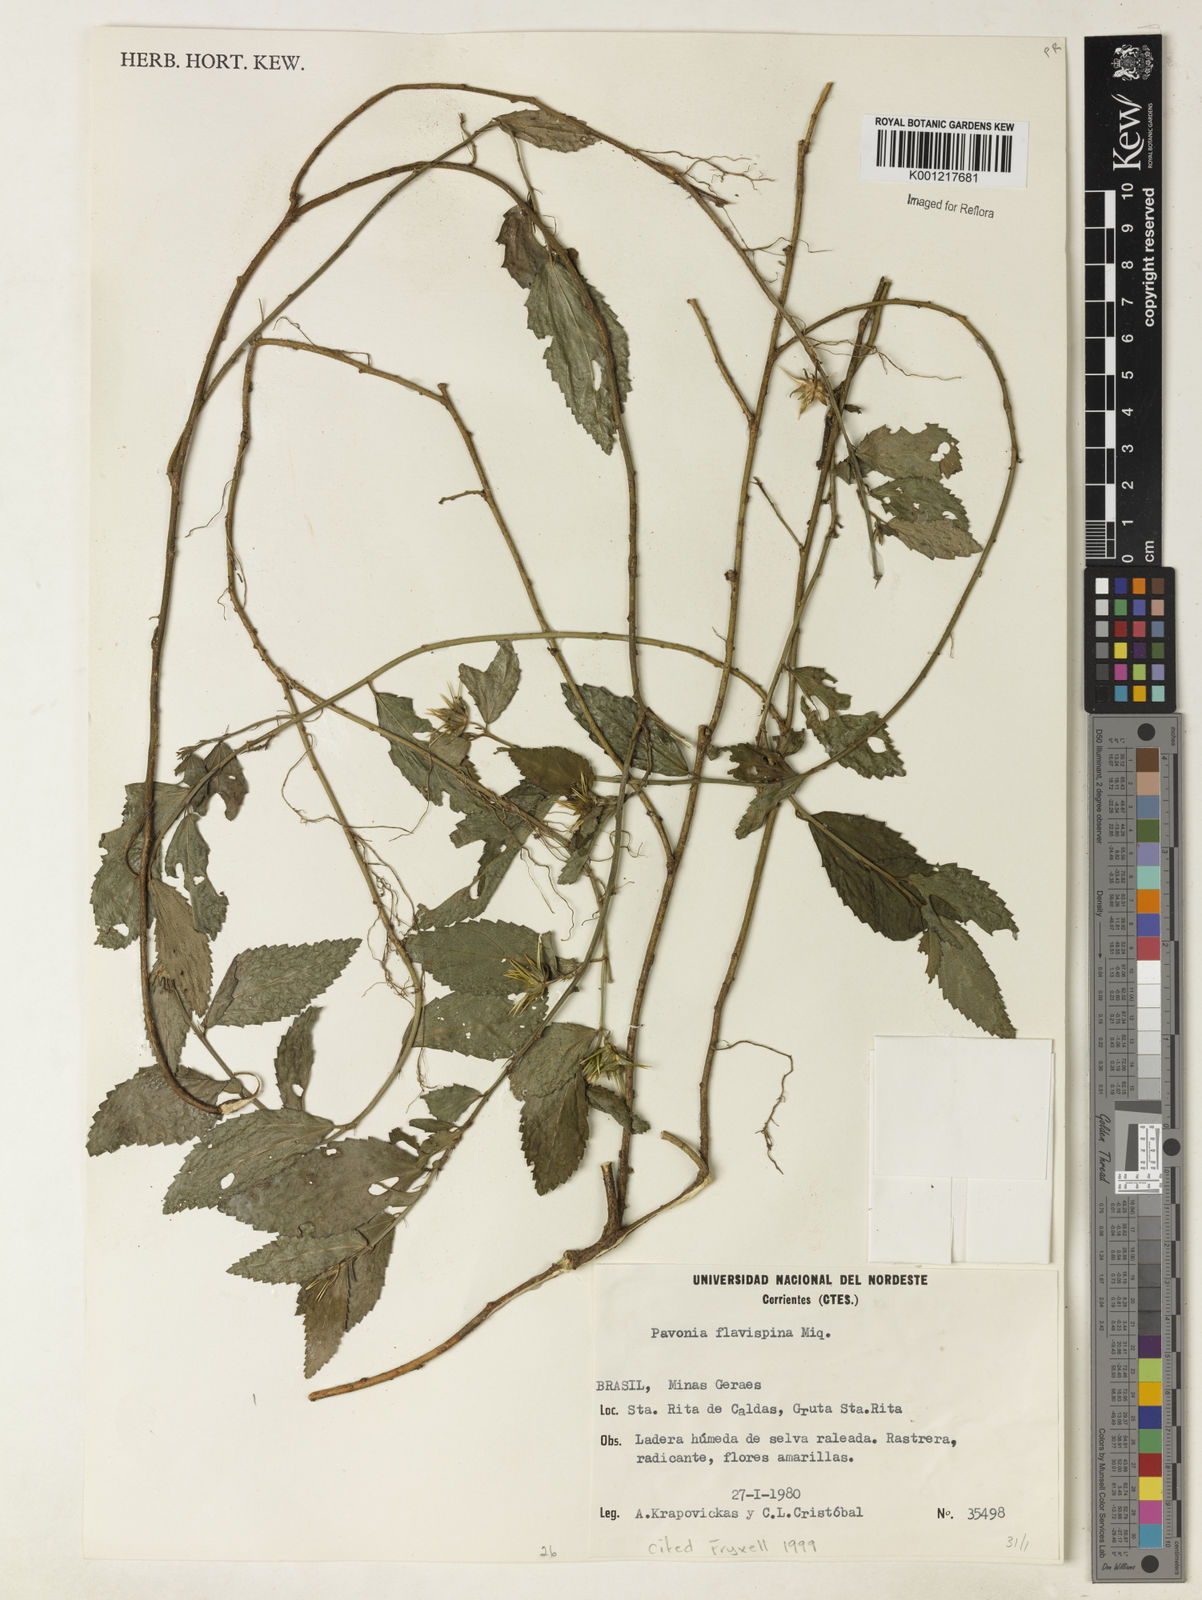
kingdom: Plantae
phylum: Tracheophyta
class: Magnoliopsida
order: Malvales
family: Malvaceae
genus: Pavonia
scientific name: Pavonia flavispina
